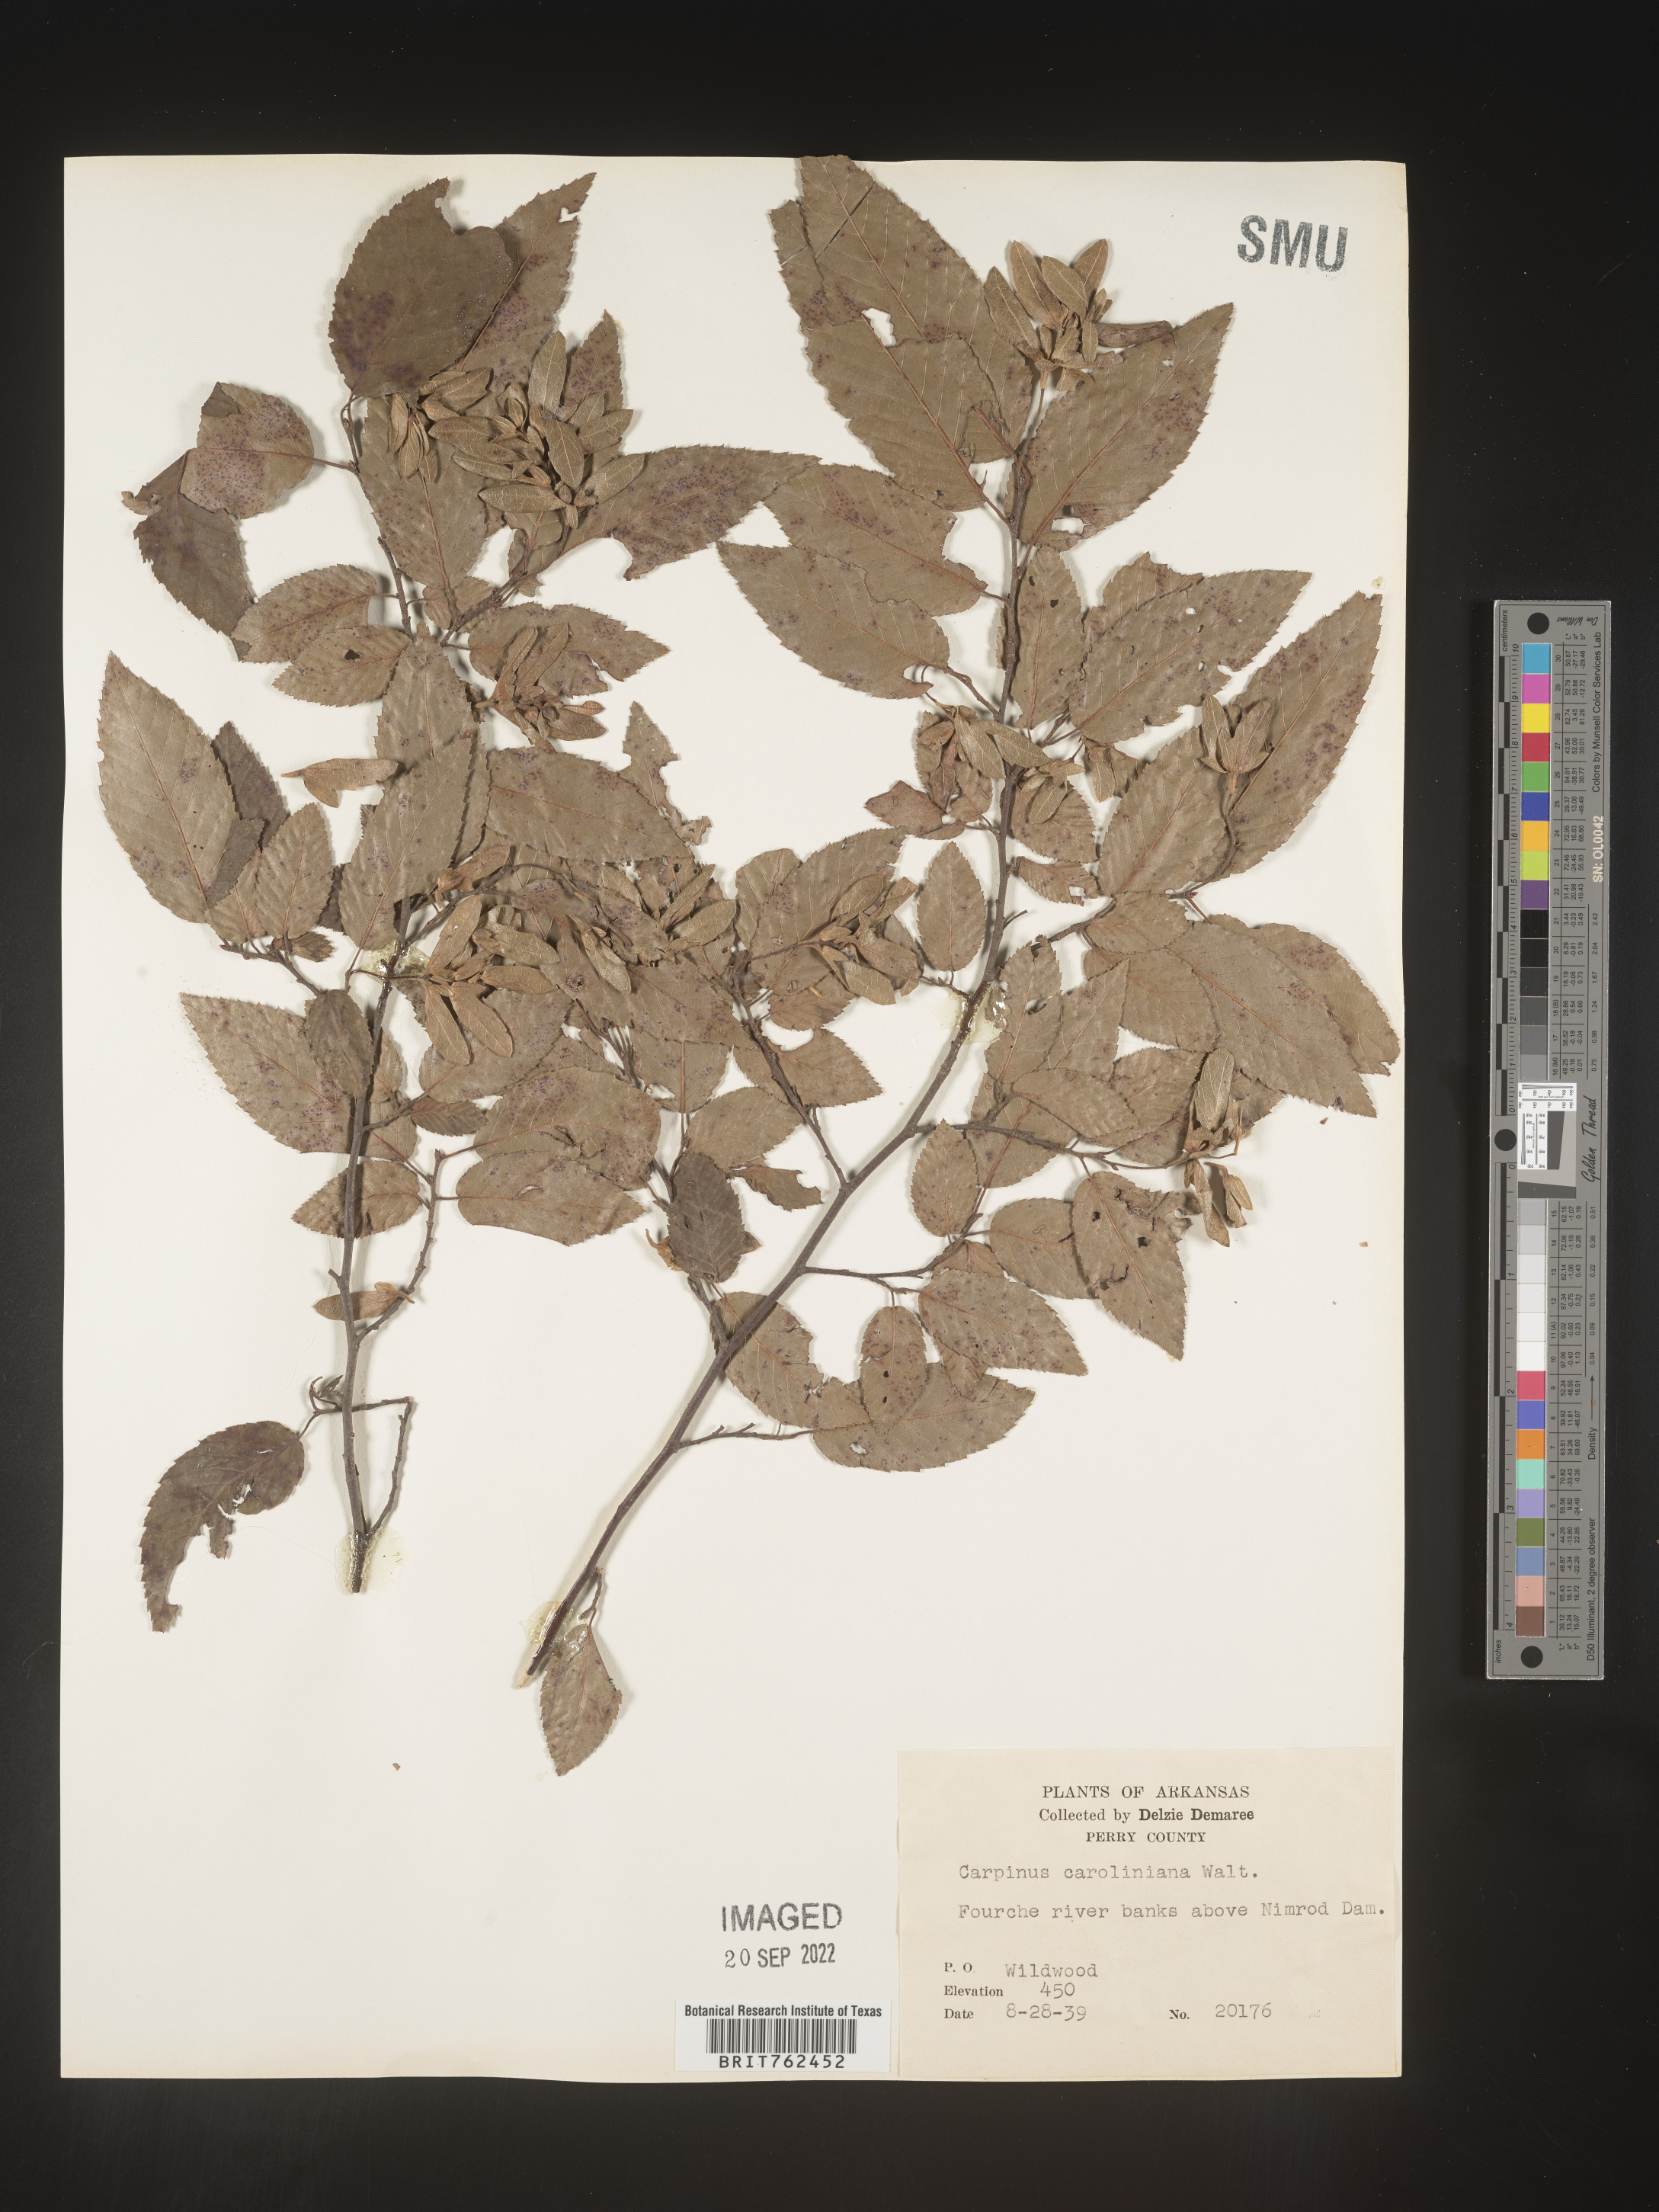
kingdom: Plantae
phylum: Tracheophyta
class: Magnoliopsida
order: Fagales
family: Betulaceae
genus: Carpinus
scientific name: Carpinus caroliniana
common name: American hornbeam
